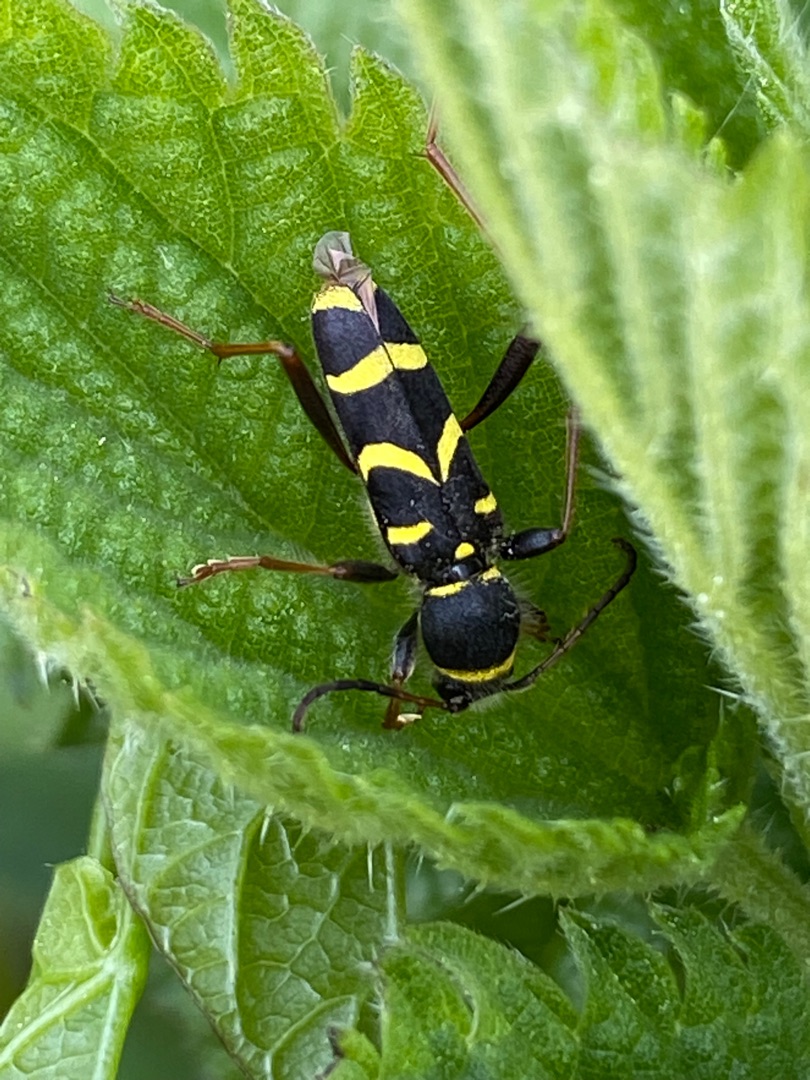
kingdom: Animalia
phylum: Arthropoda
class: Insecta
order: Coleoptera
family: Cerambycidae
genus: Clytus
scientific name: Clytus arietis
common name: Lille hvepsebuk
